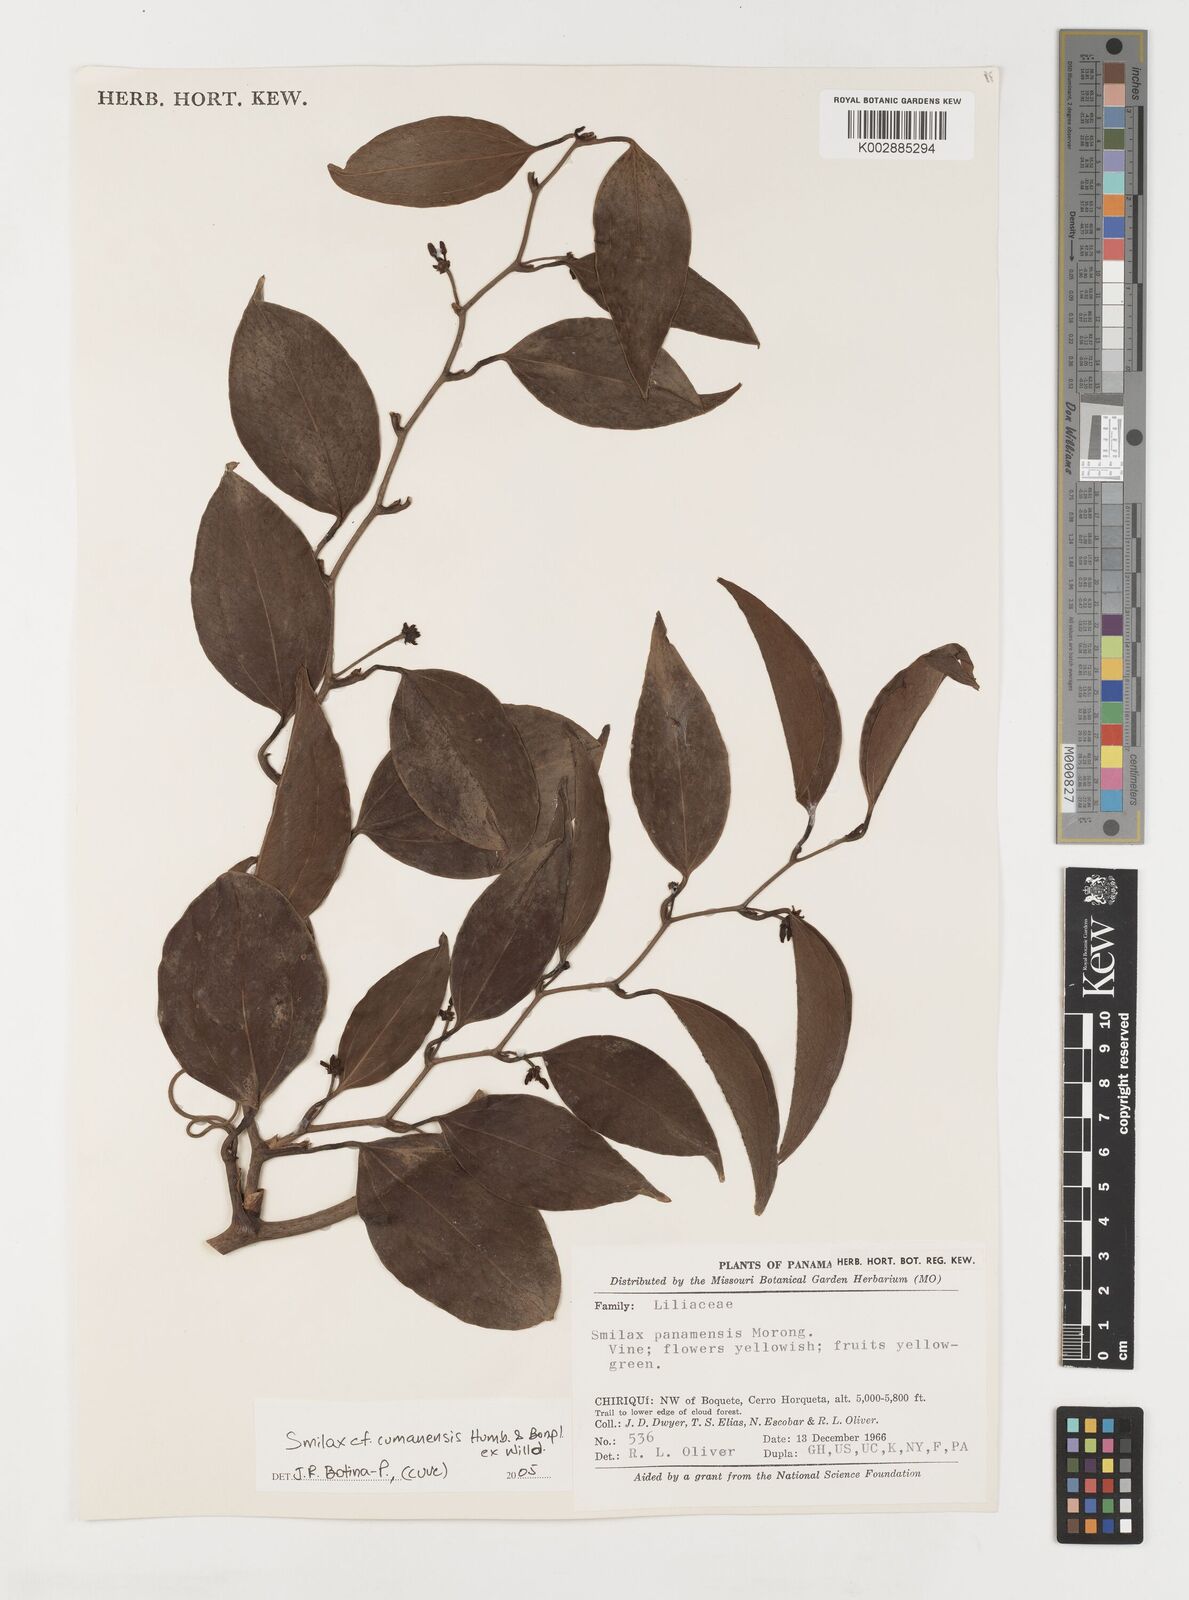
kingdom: Plantae
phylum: Tracheophyta
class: Liliopsida
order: Liliales
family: Smilacaceae
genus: Smilax
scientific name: Smilax oblongata
